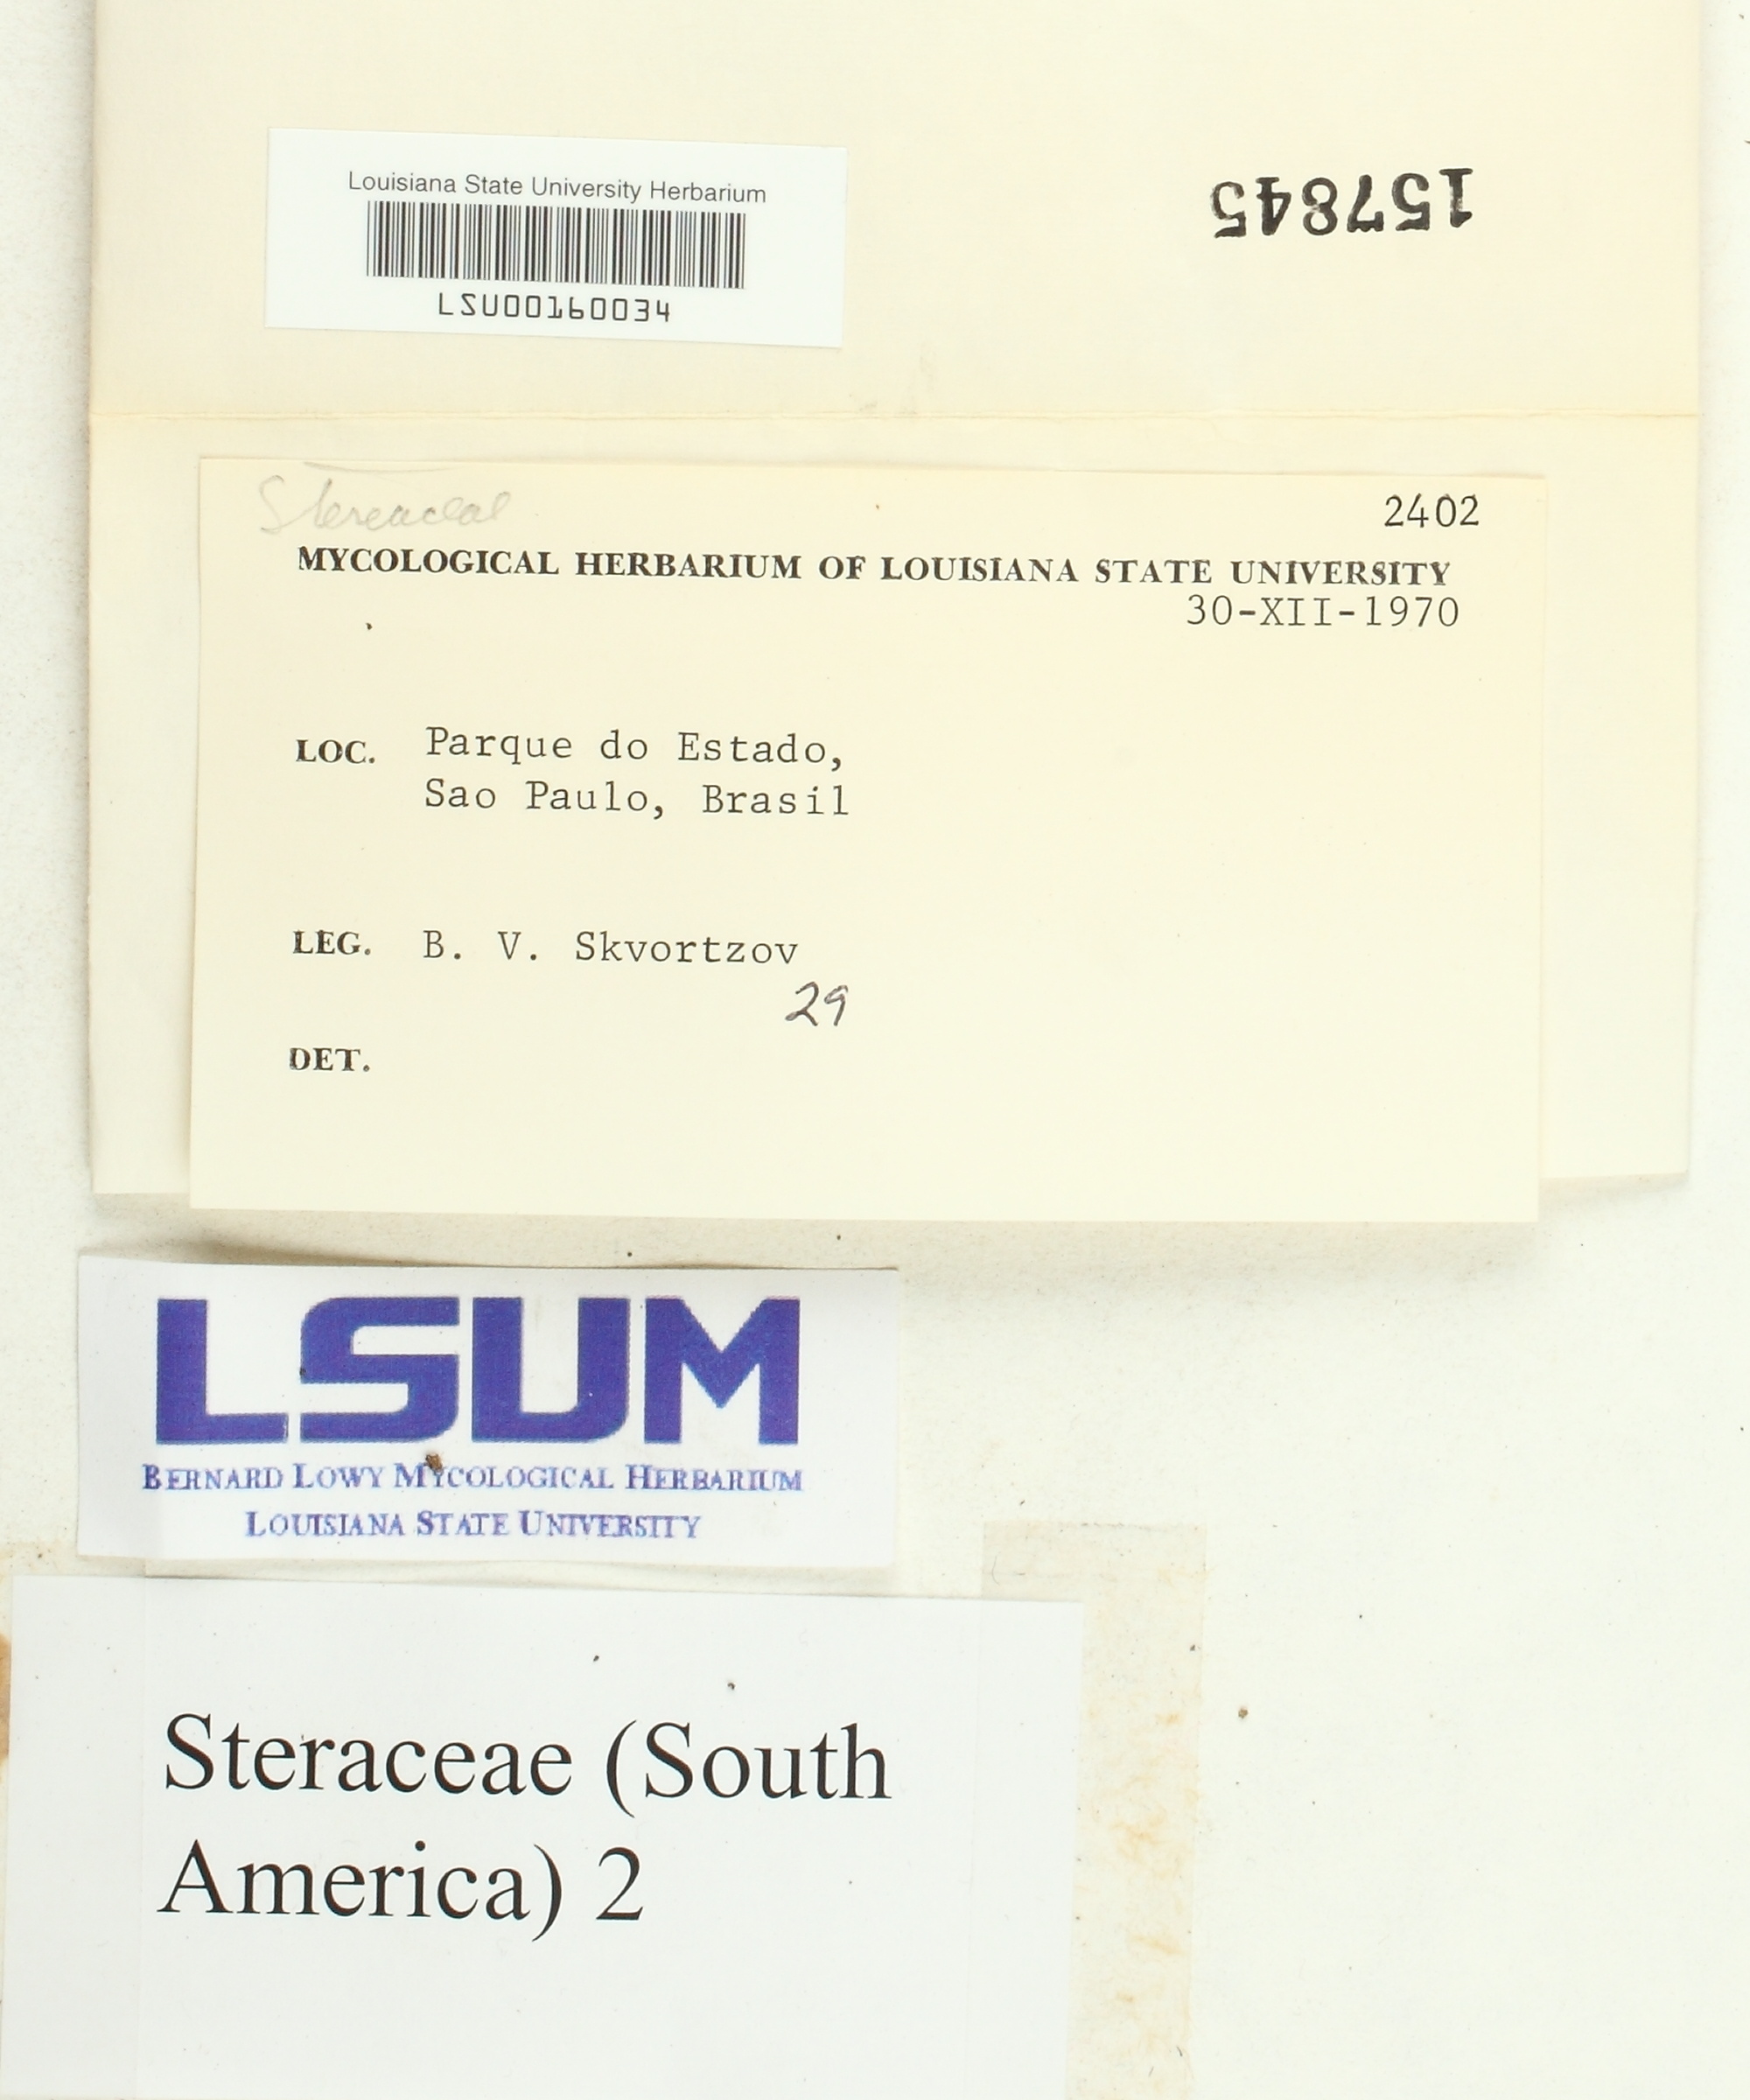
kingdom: Fungi
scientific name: Fungi
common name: Fungi
